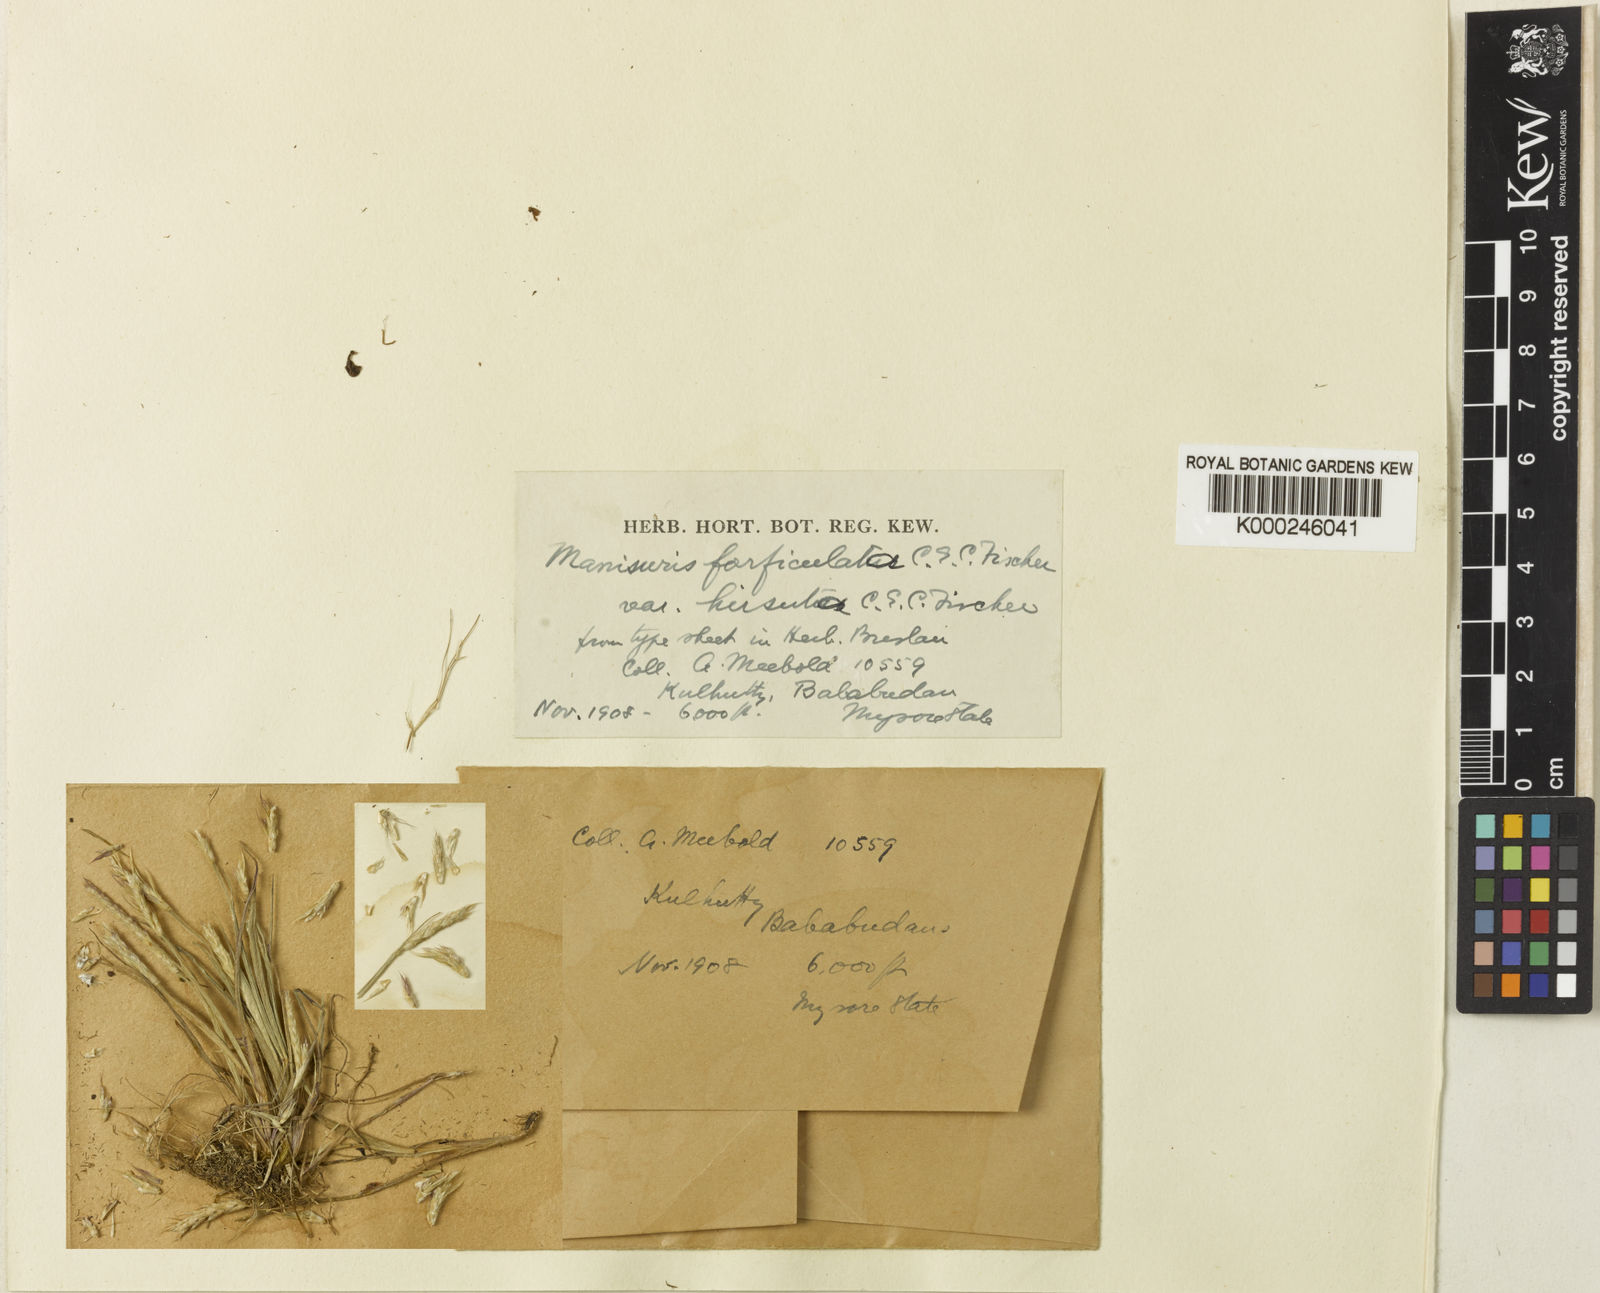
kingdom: Plantae
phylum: Tracheophyta
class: Liliopsida
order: Poales
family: Poaceae
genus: Glyphochloa
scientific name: Glyphochloa divergens
